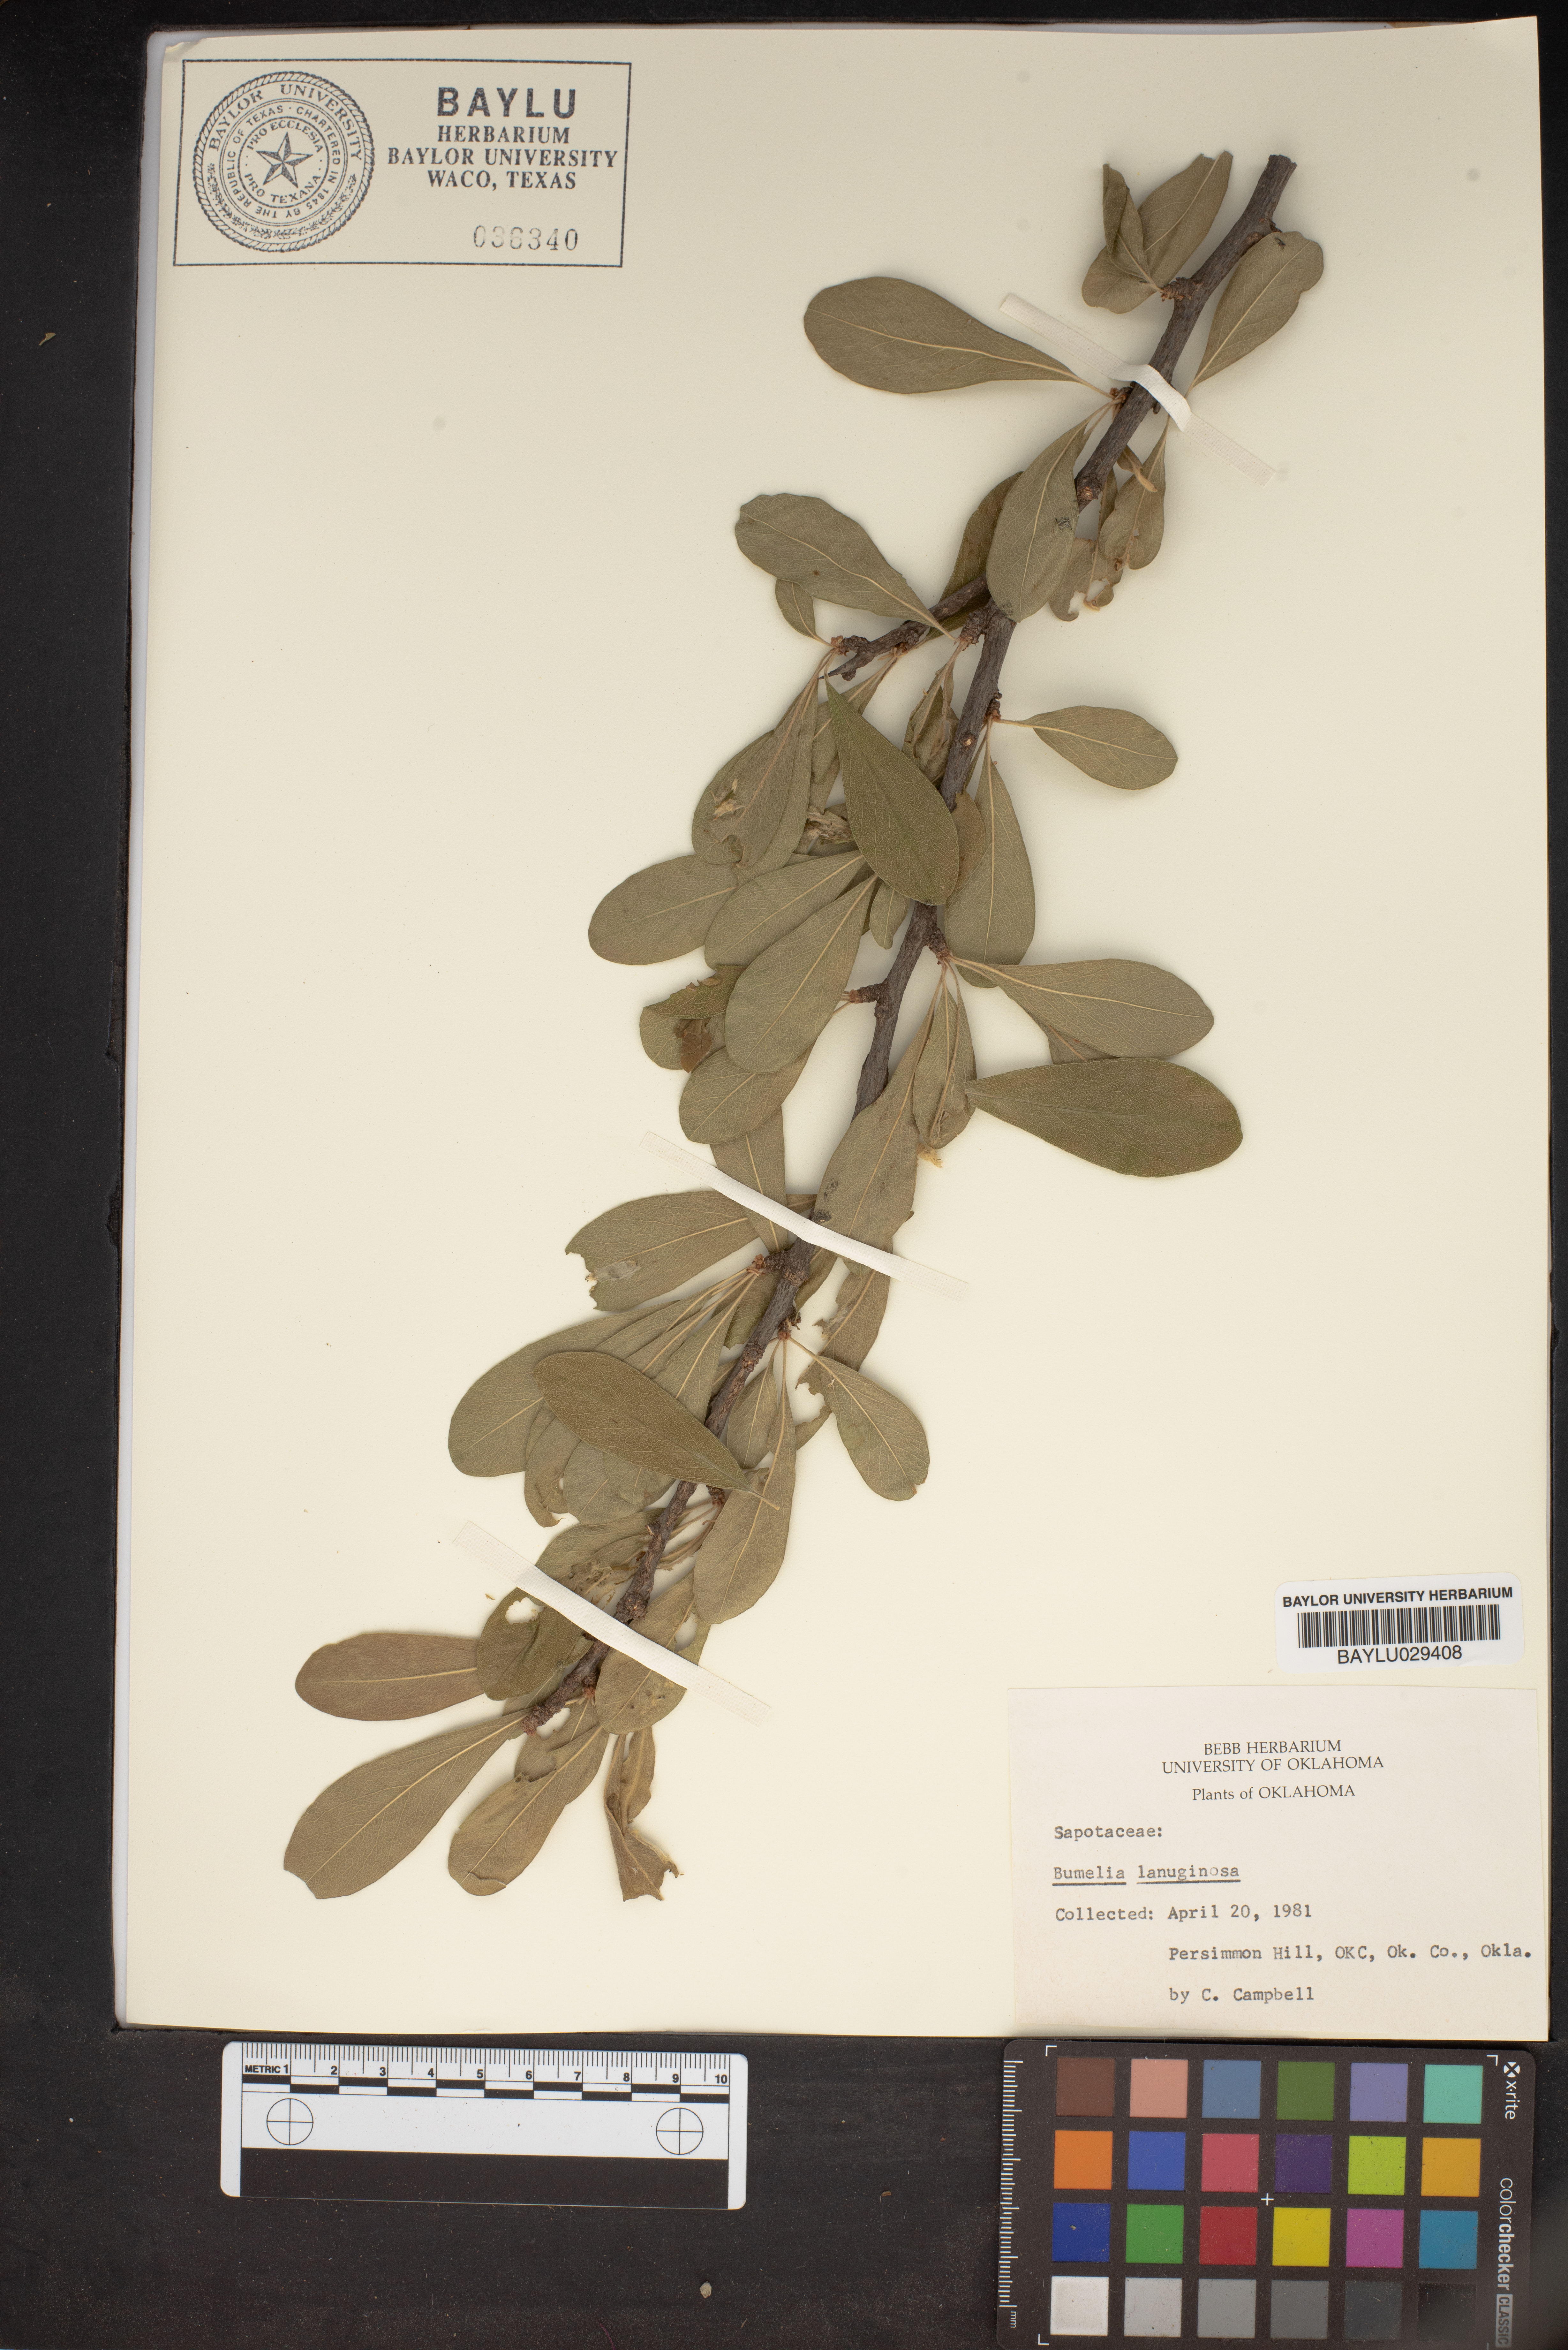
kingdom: Plantae
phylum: Tracheophyta
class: Magnoliopsida
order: Ericales
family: Sapotaceae
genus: Sideroxylon
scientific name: Sideroxylon lanuginosum
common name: Chittamwood
